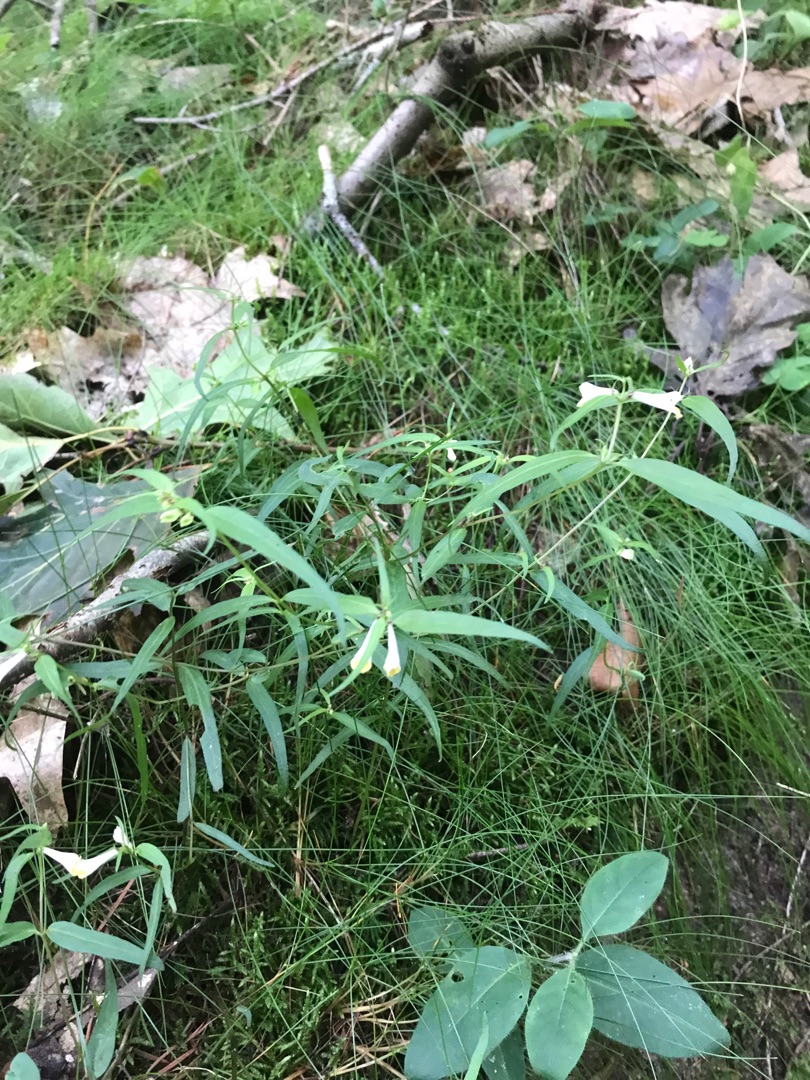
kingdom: Plantae
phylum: Tracheophyta
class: Magnoliopsida
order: Lamiales
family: Orobanchaceae
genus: Melampyrum
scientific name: Melampyrum pratense
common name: Almindelig kohvede
